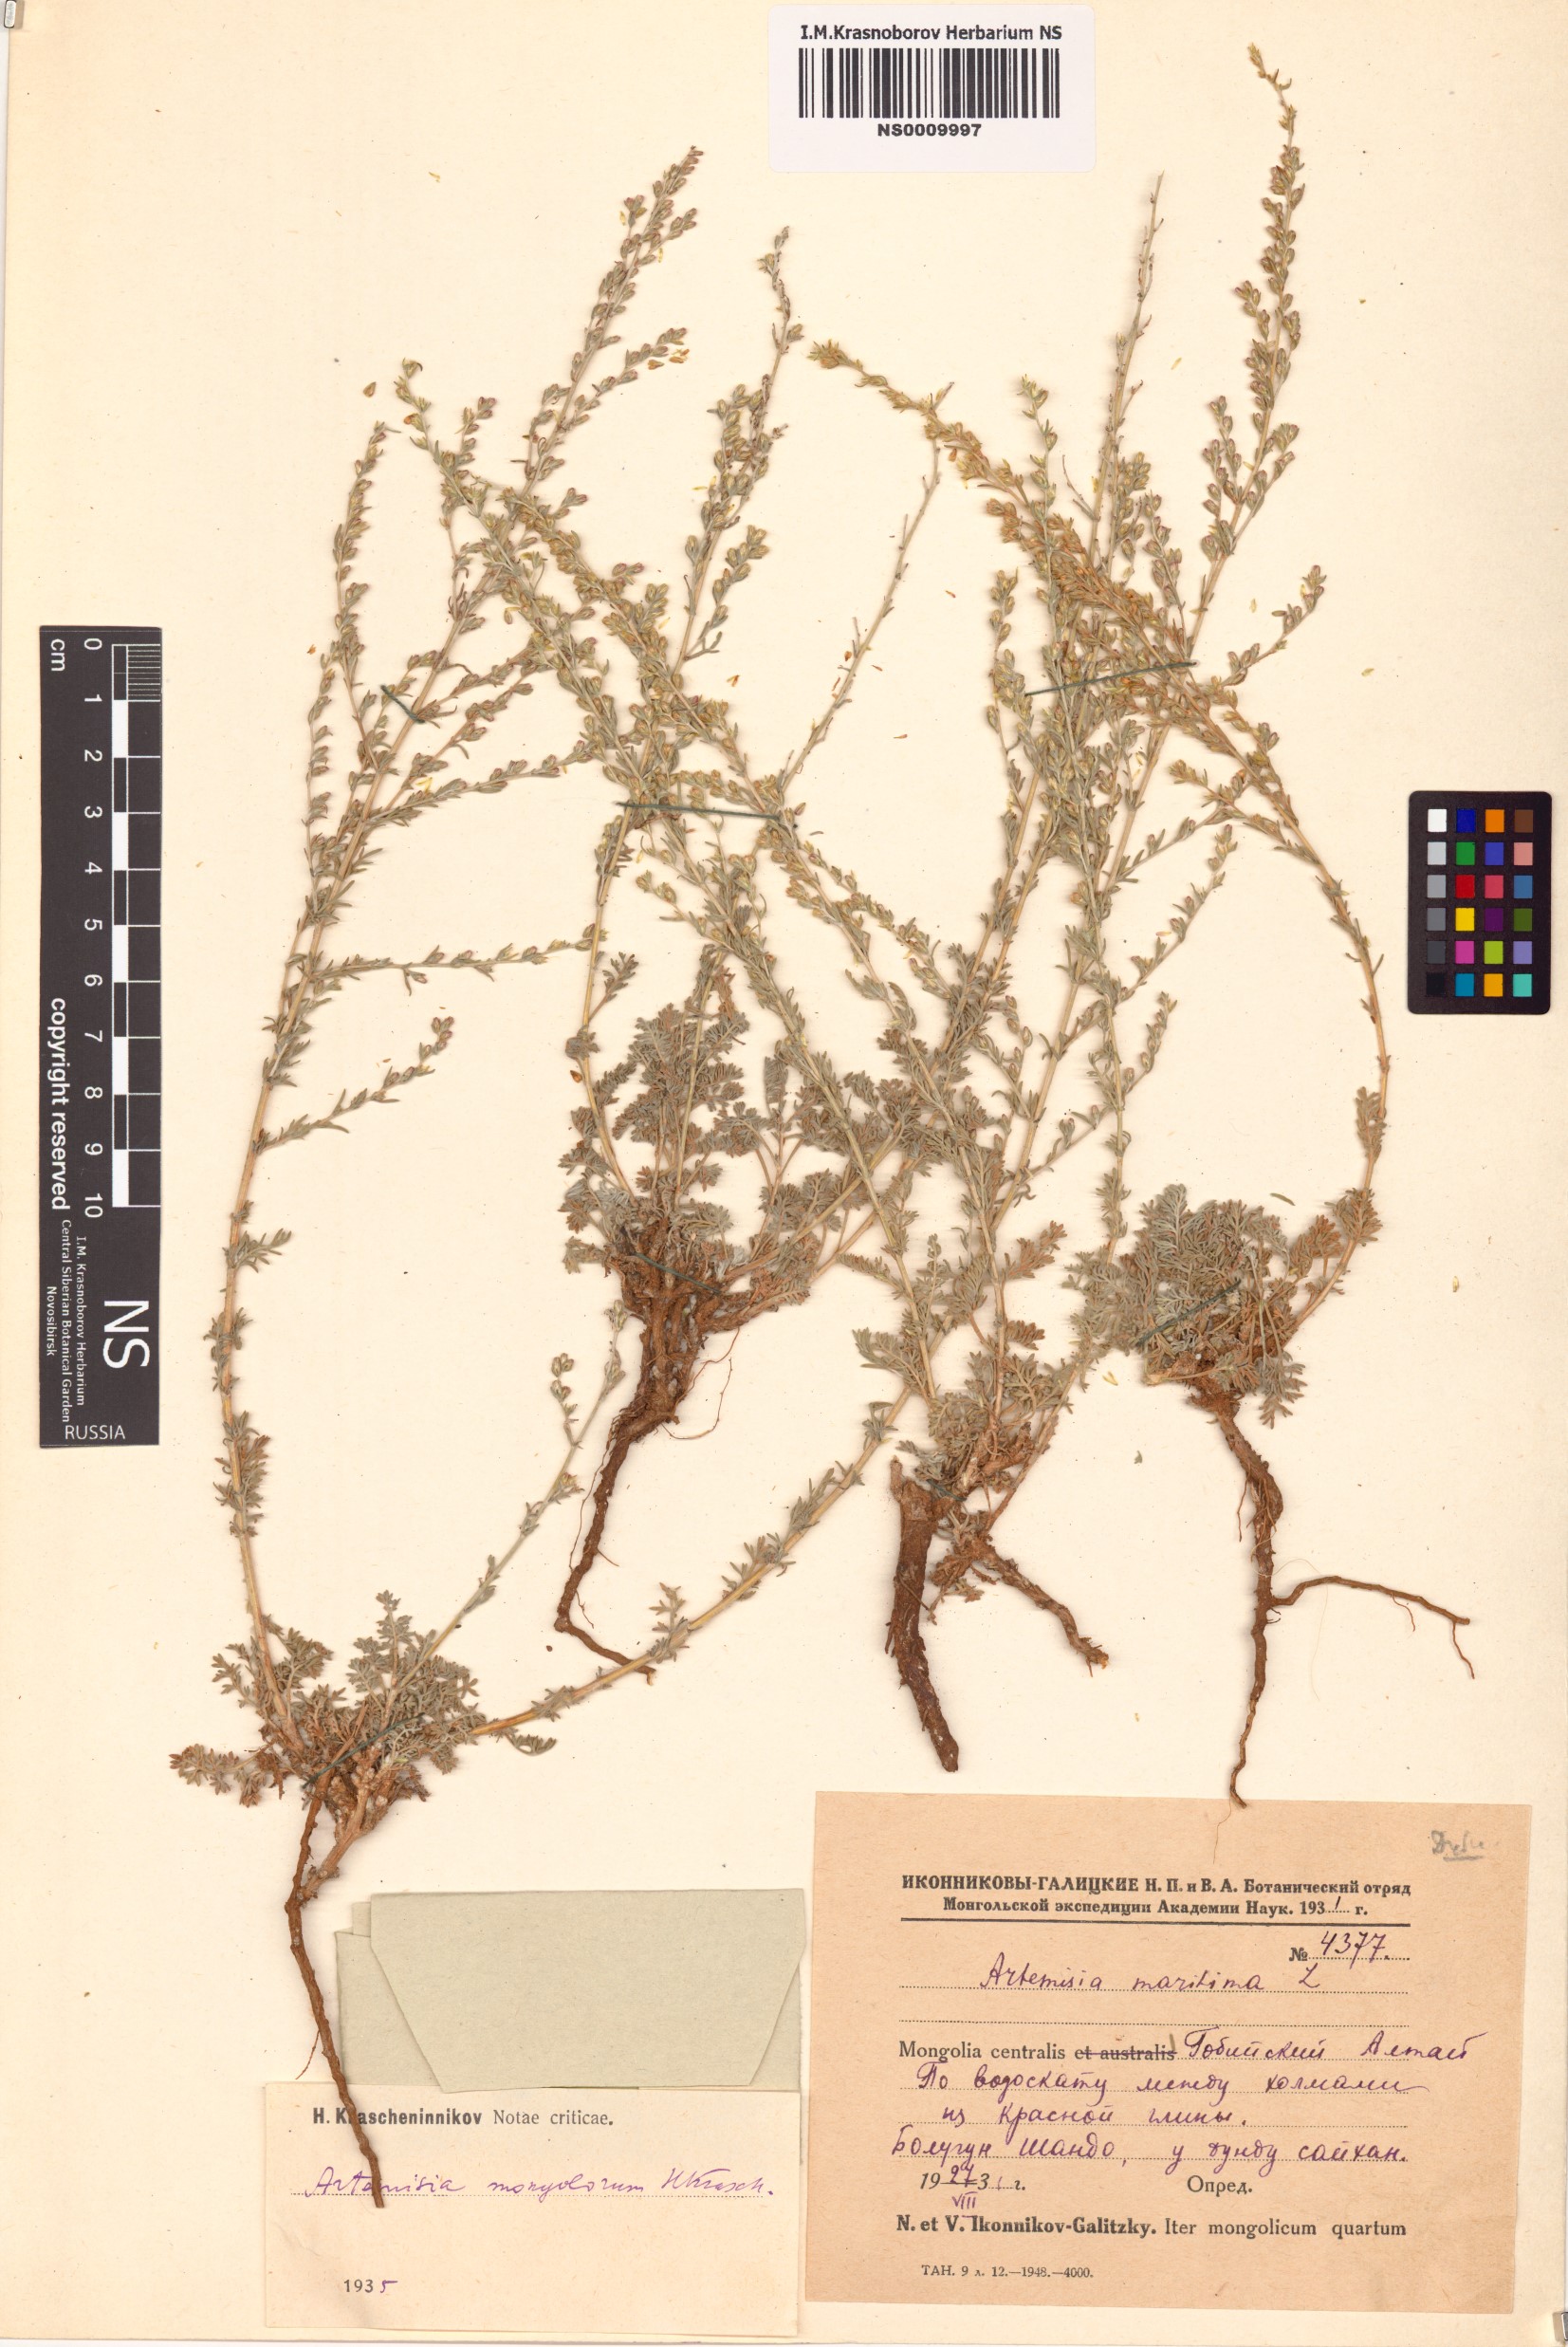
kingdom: Plantae
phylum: Tracheophyta
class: Magnoliopsida
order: Asterales
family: Asteraceae
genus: Artemisia
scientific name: Artemisia mongolorum
